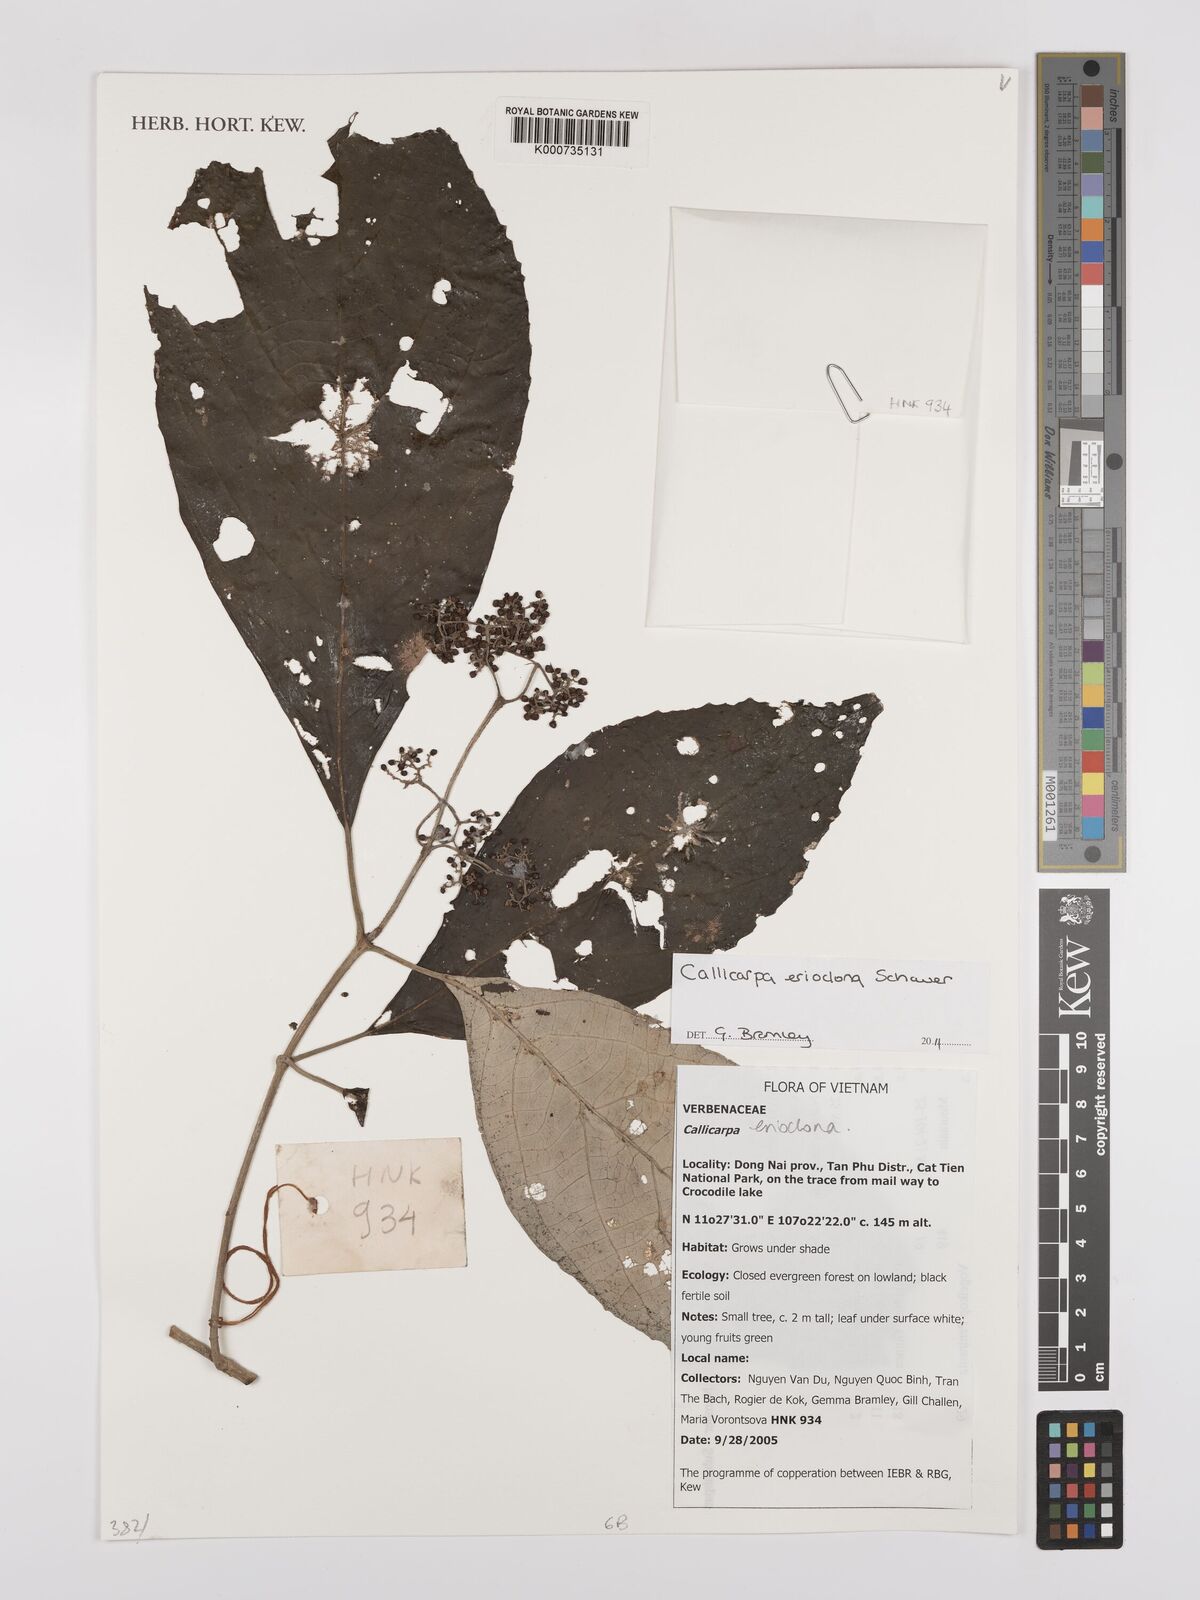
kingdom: Plantae
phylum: Tracheophyta
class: Magnoliopsida
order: Lamiales
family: Lamiaceae
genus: Callicarpa
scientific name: Callicarpa erioclona
